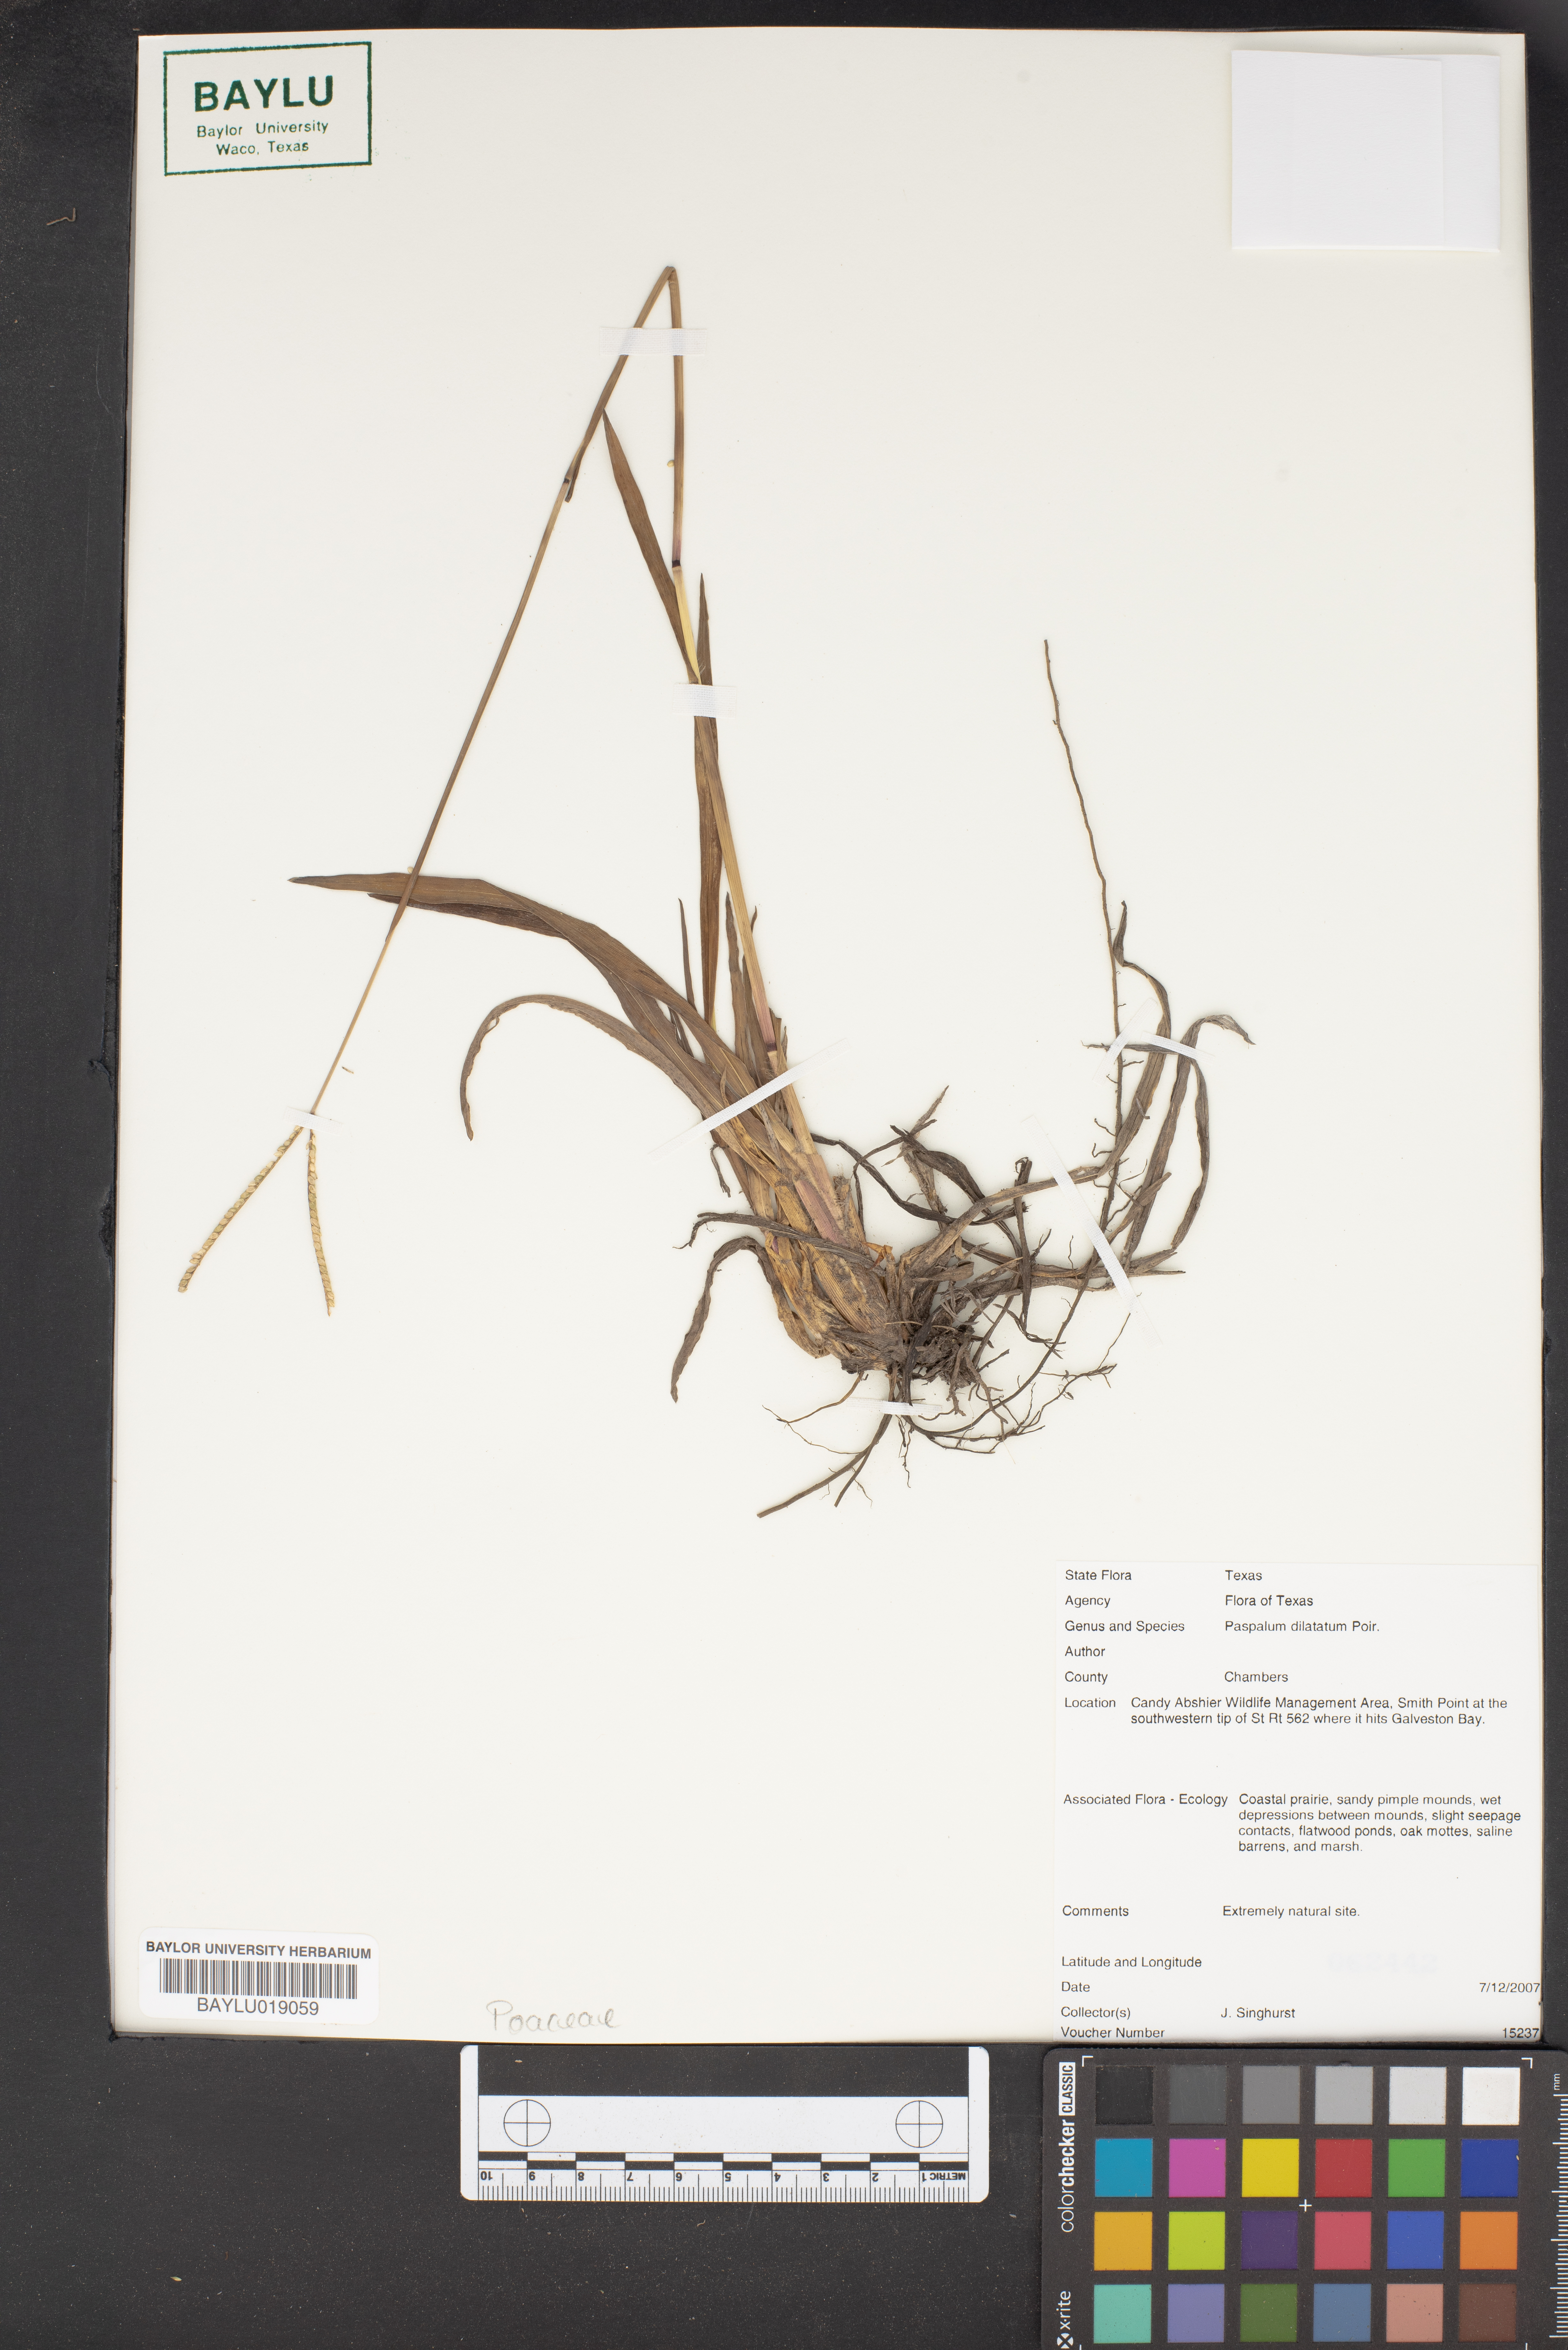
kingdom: Plantae
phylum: Tracheophyta
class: Liliopsida
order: Poales
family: Poaceae
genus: Paspalum
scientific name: Paspalum ammodes
